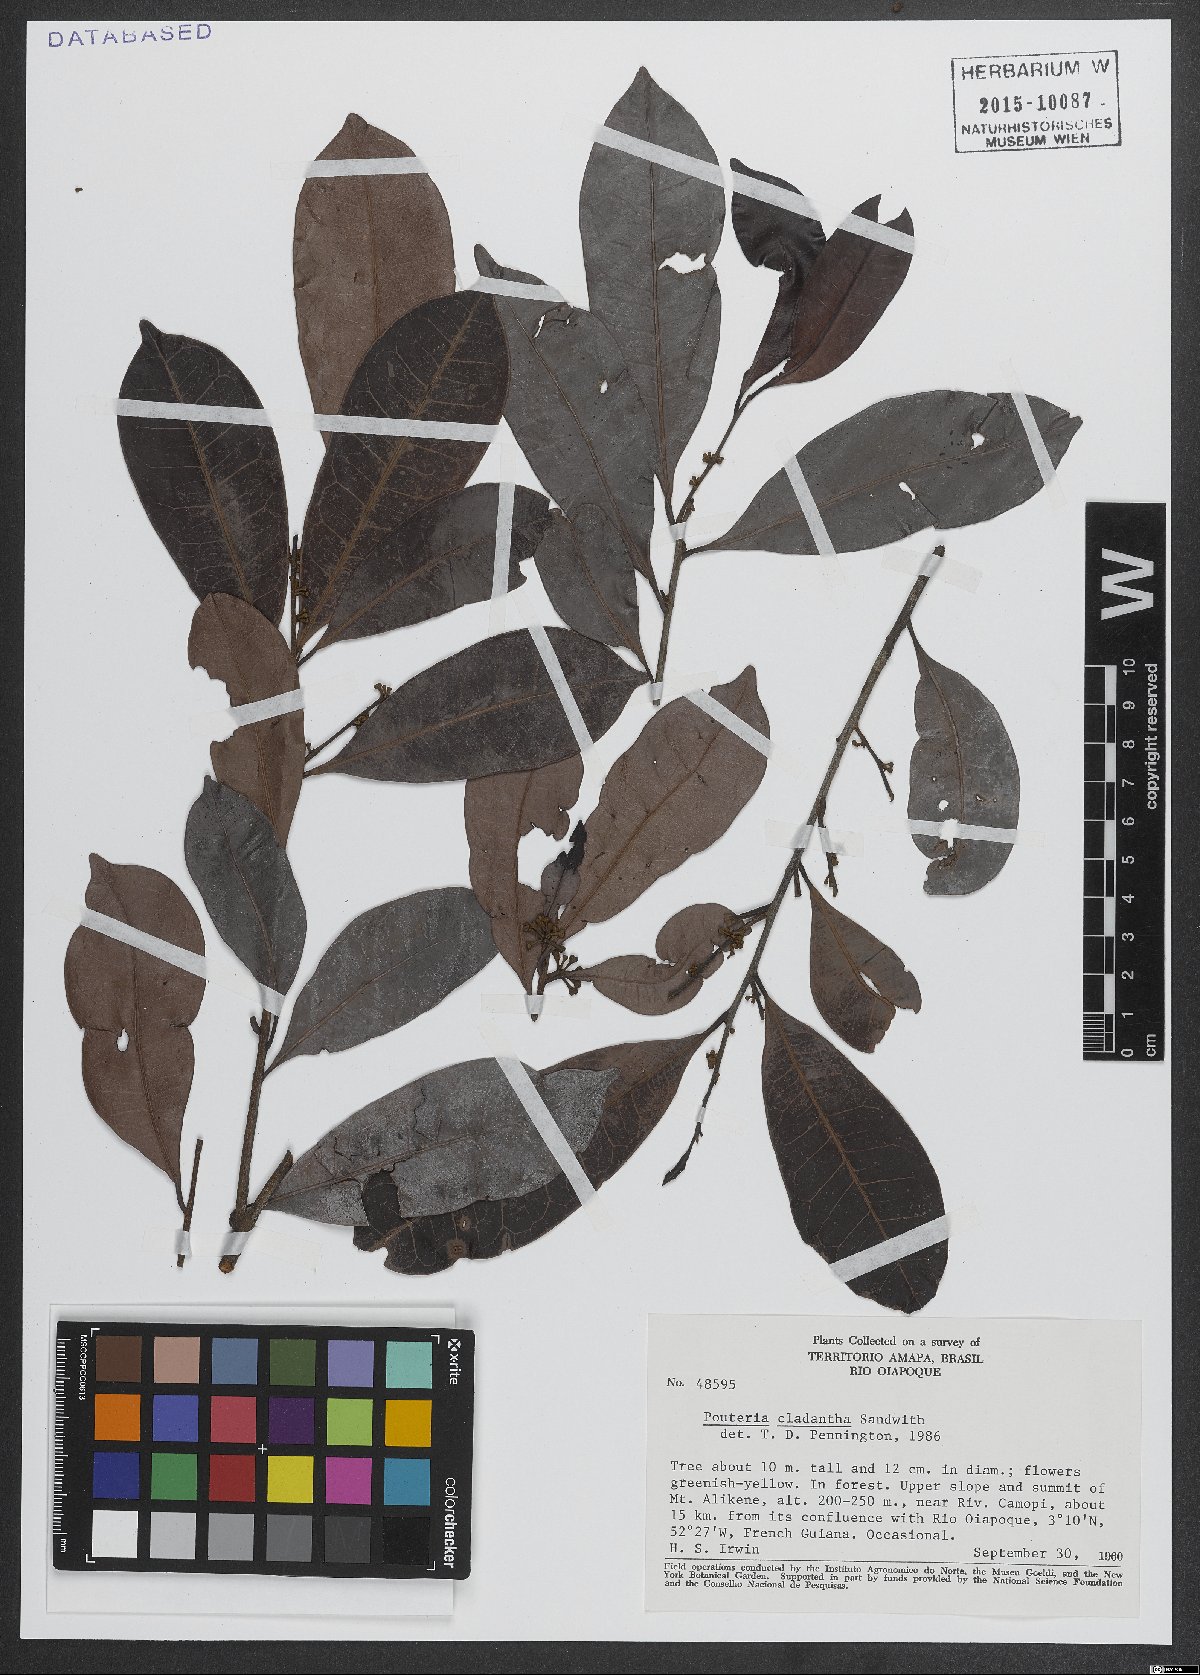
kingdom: Plantae
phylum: Tracheophyta
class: Magnoliopsida
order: Ericales
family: Sapotaceae
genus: Pouteria
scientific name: Pouteria cladantha
